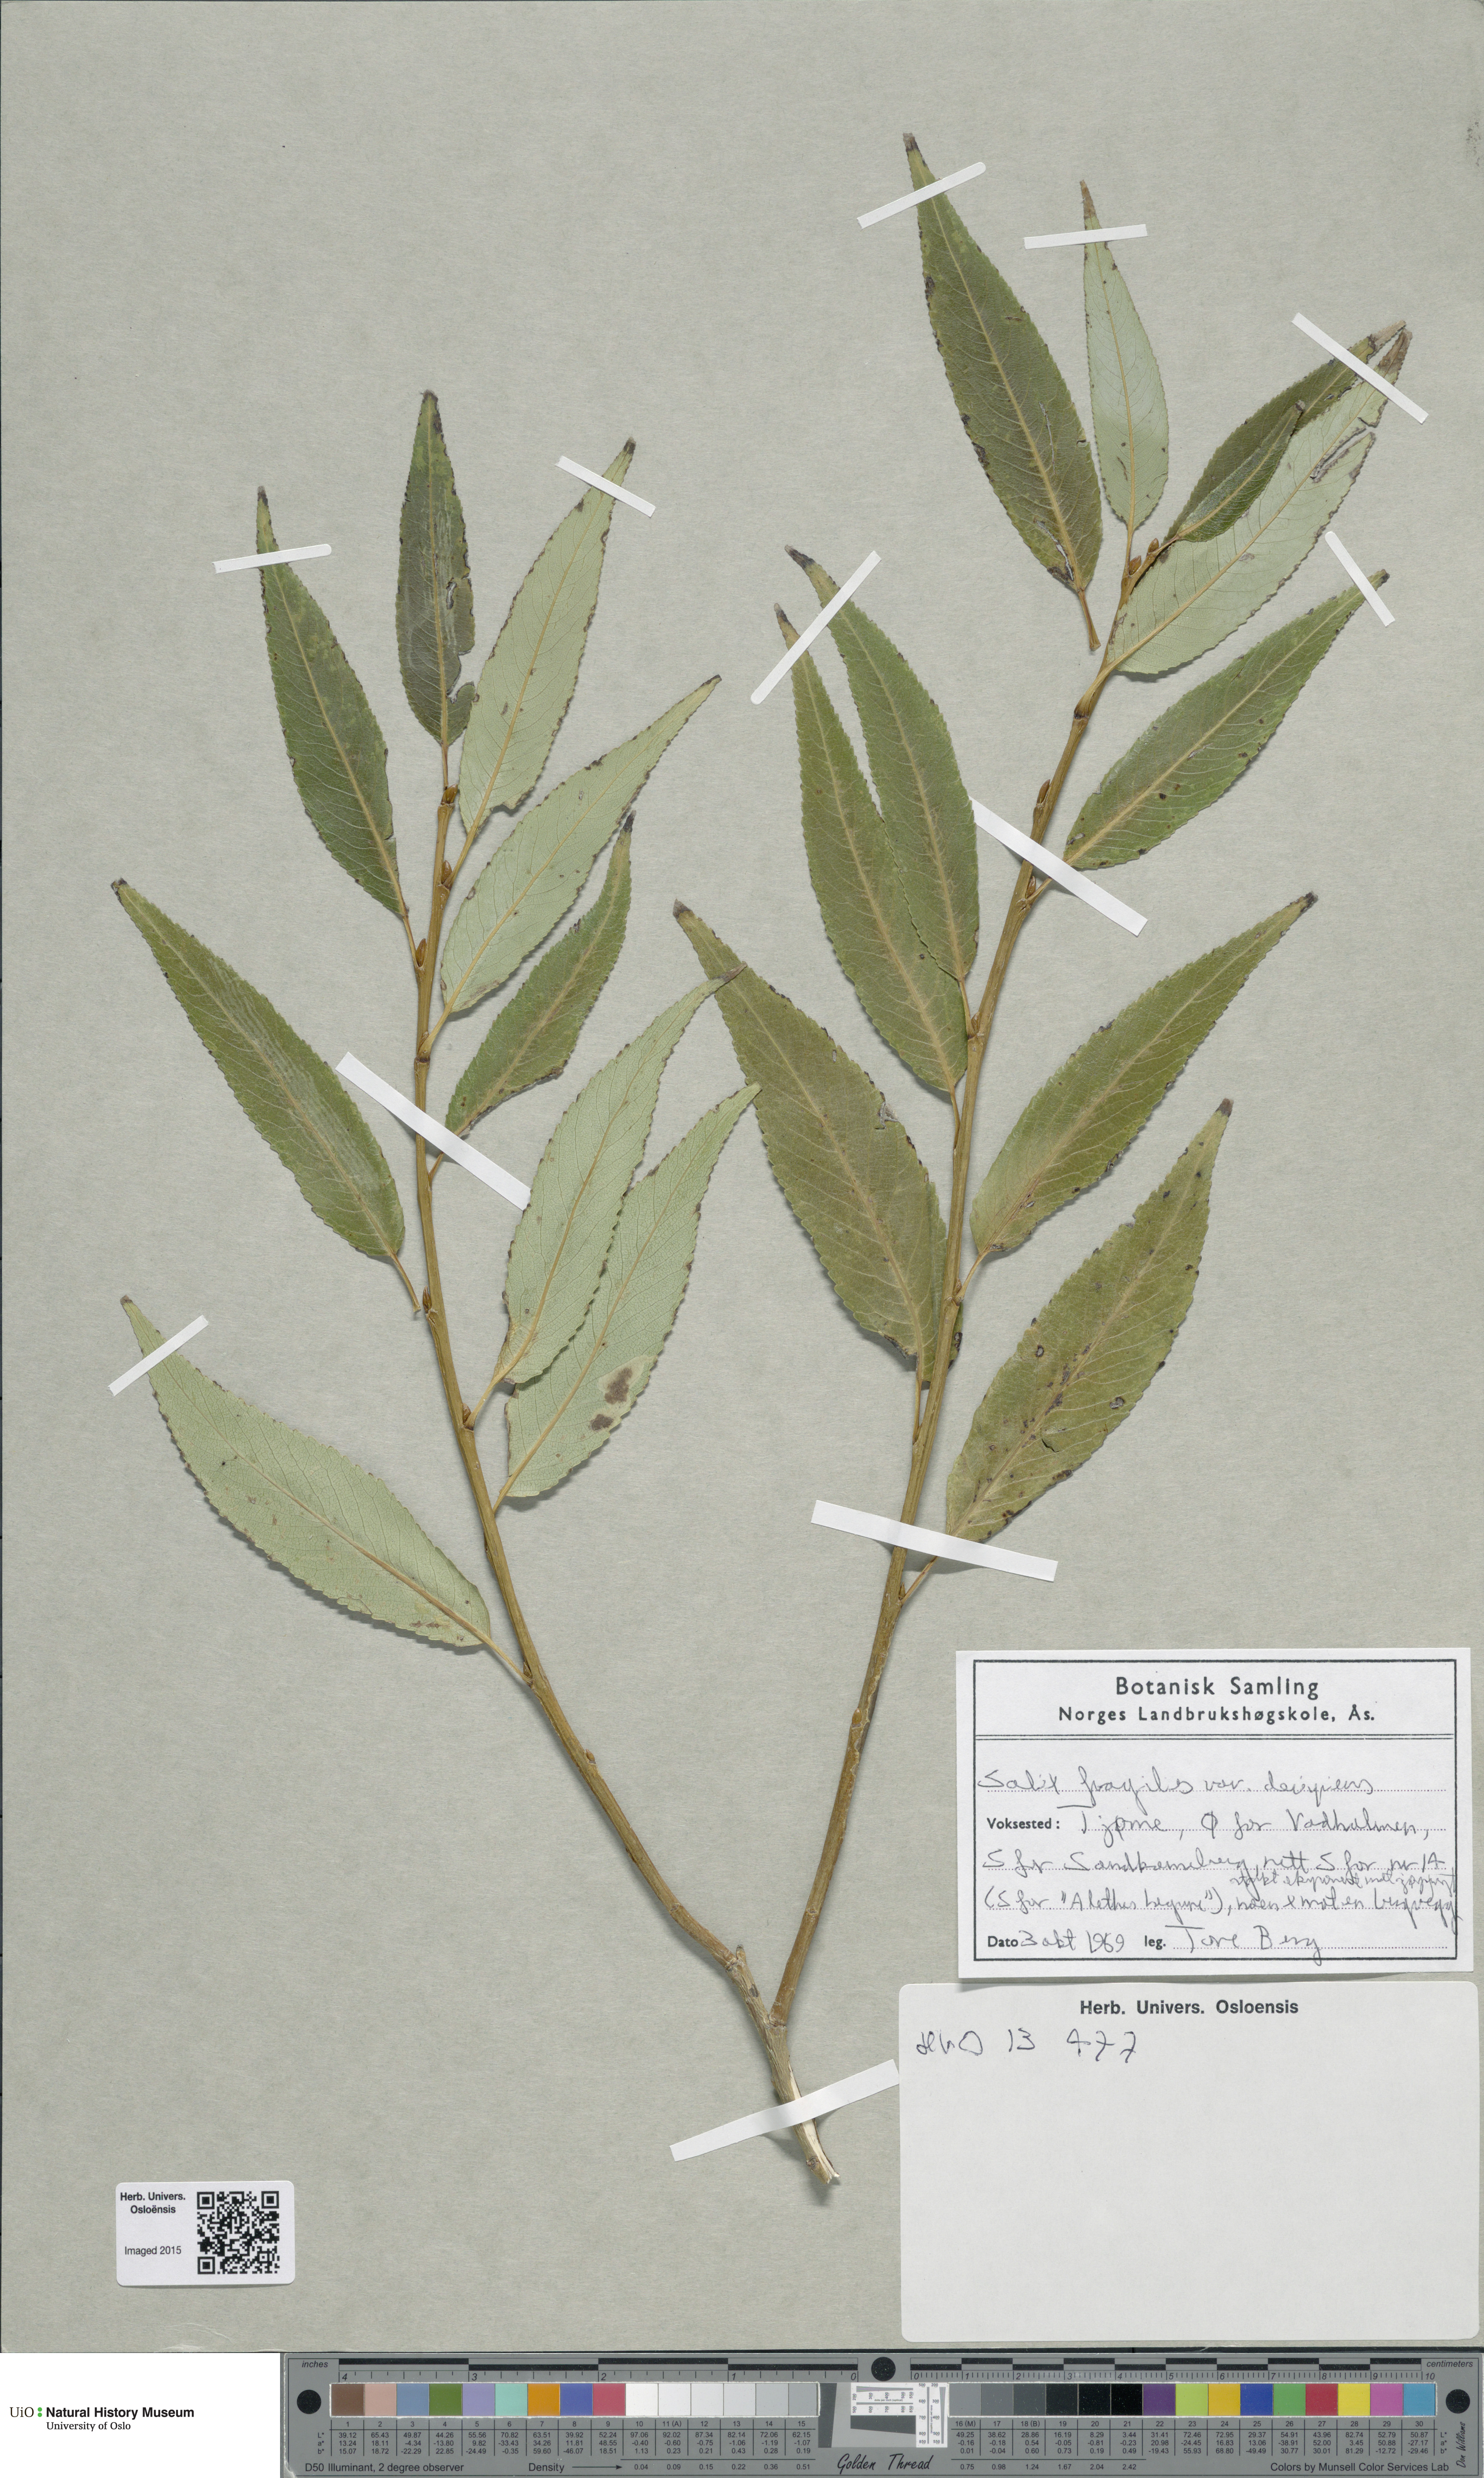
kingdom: Plantae
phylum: Tracheophyta
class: Magnoliopsida
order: Malpighiales
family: Salicaceae
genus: Salix
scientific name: Salix alba
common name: White willow
